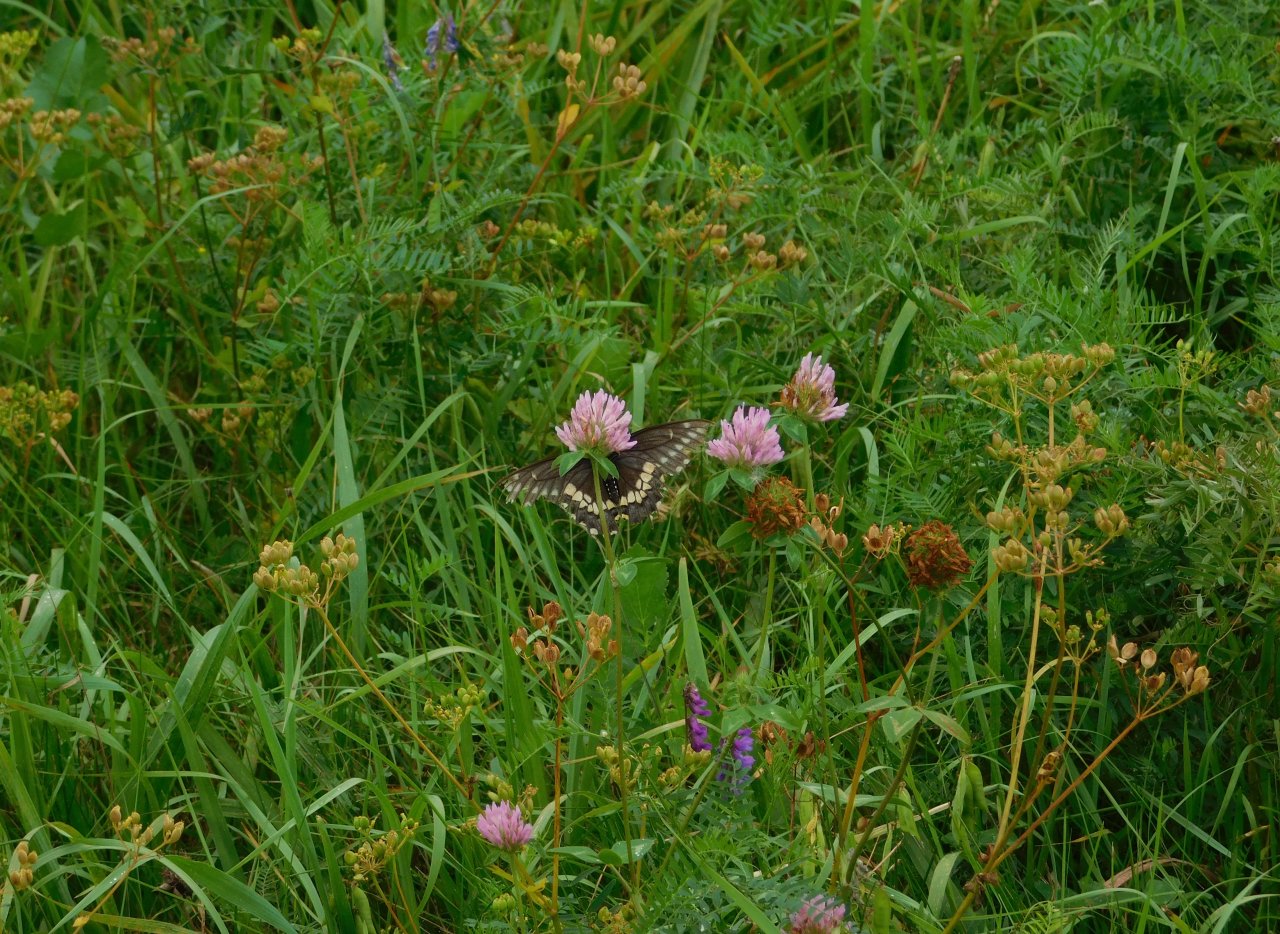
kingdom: Animalia
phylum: Arthropoda
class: Insecta
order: Lepidoptera
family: Papilionidae
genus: Papilio
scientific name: Papilio polyxenes
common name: Black Swallowtail
